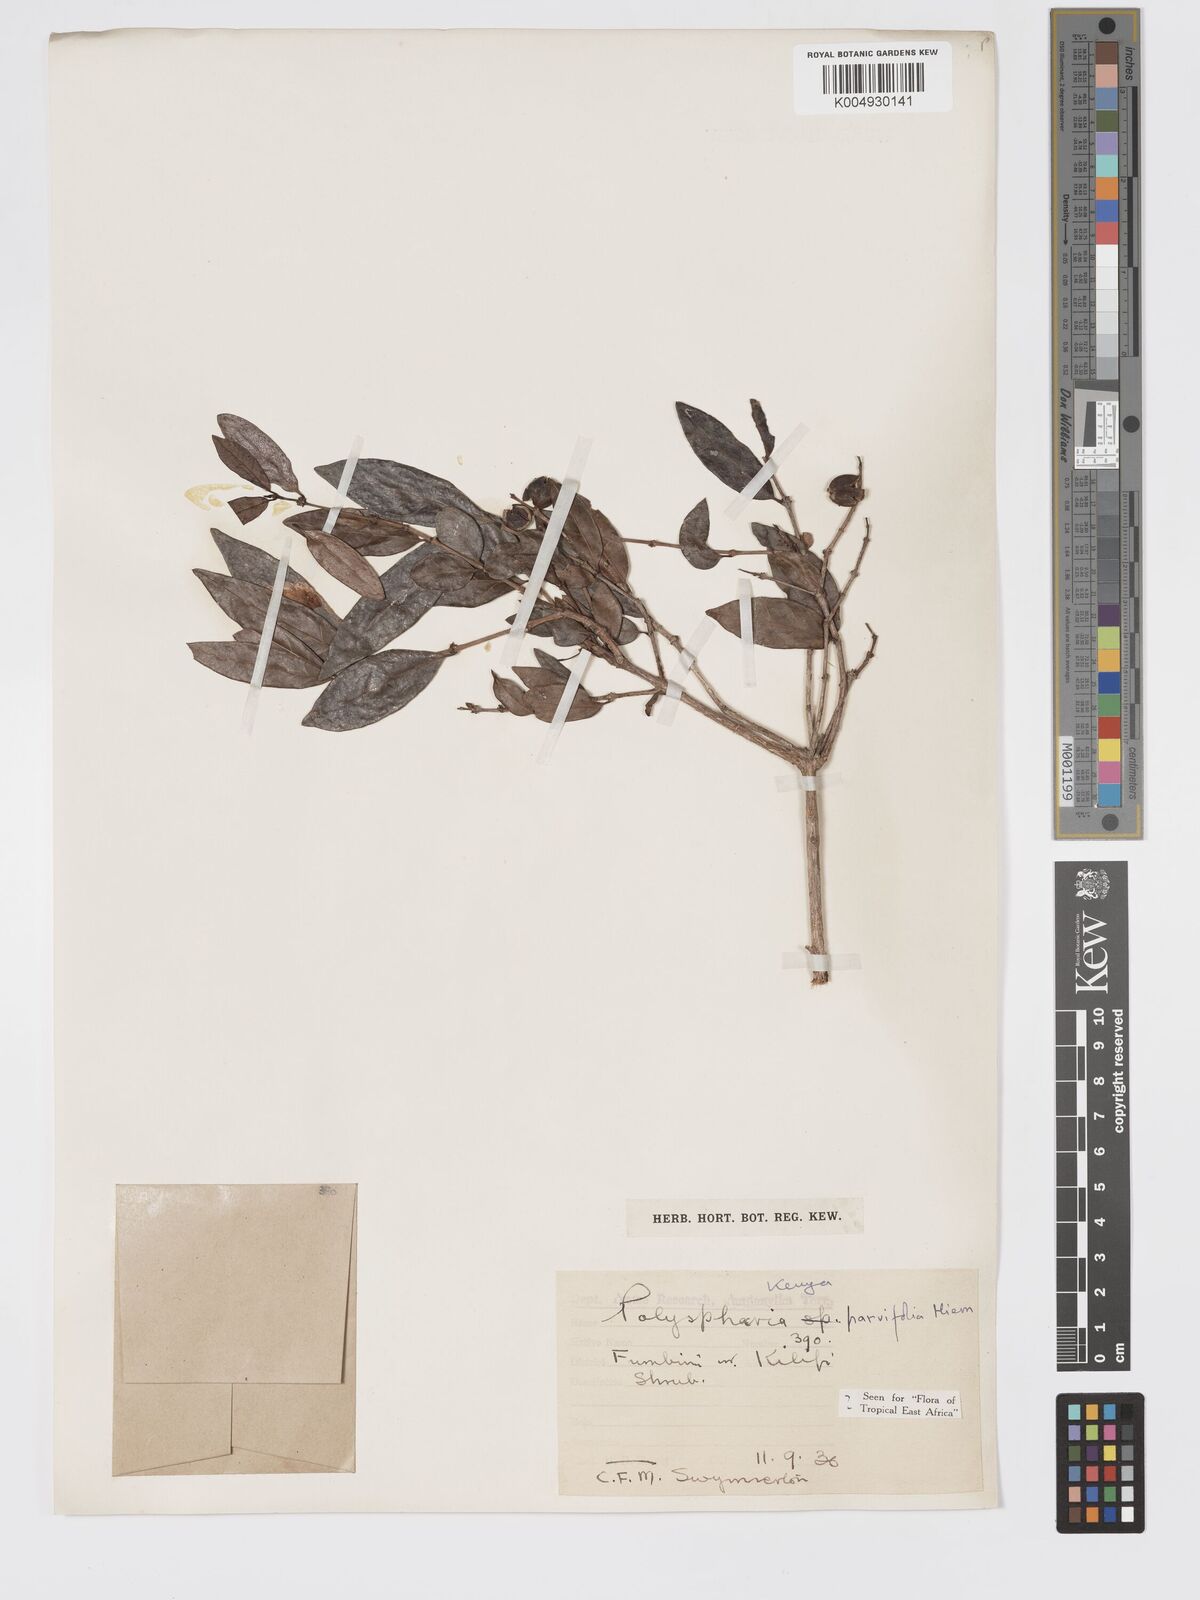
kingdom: Plantae
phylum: Tracheophyta
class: Magnoliopsida
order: Gentianales
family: Rubiaceae
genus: Polysphaeria
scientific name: Polysphaeria parvifolia
